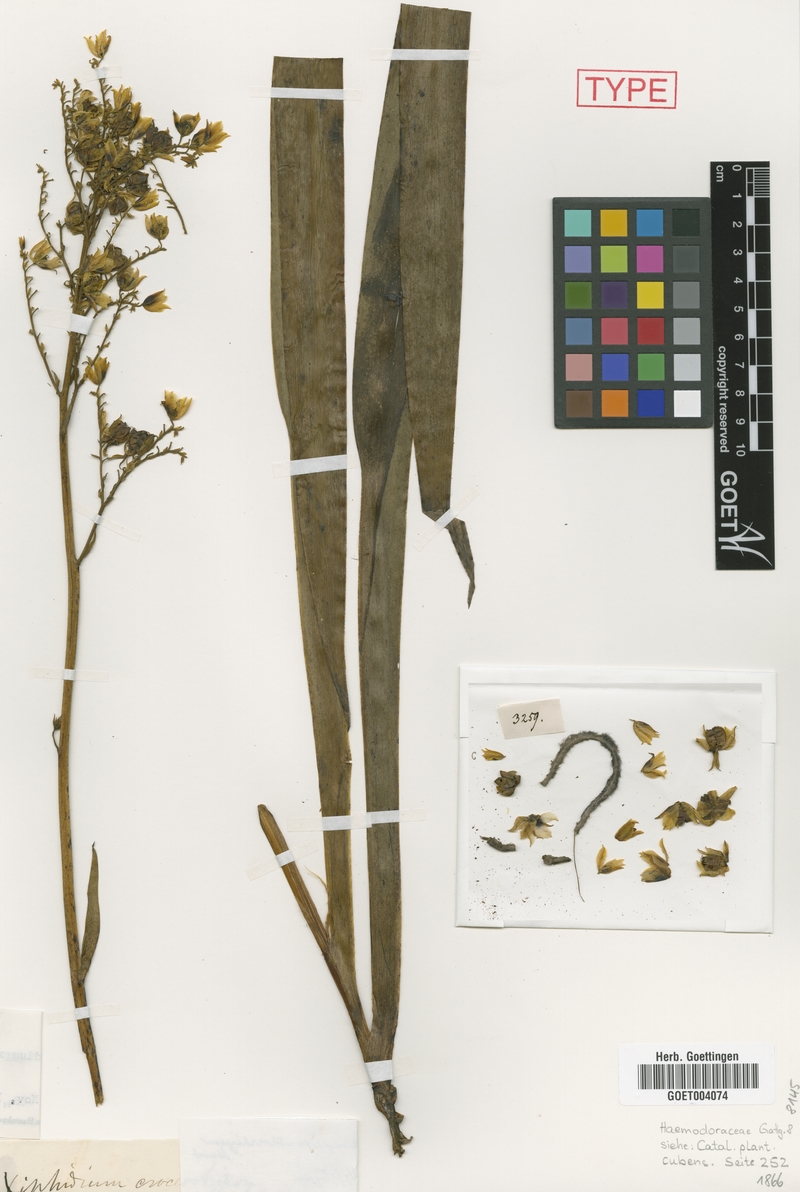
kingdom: Plantae
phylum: Tracheophyta
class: Liliopsida
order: Commelinales
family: Haemodoraceae
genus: Cubanicula
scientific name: Cubanicula xanthorrhizos
